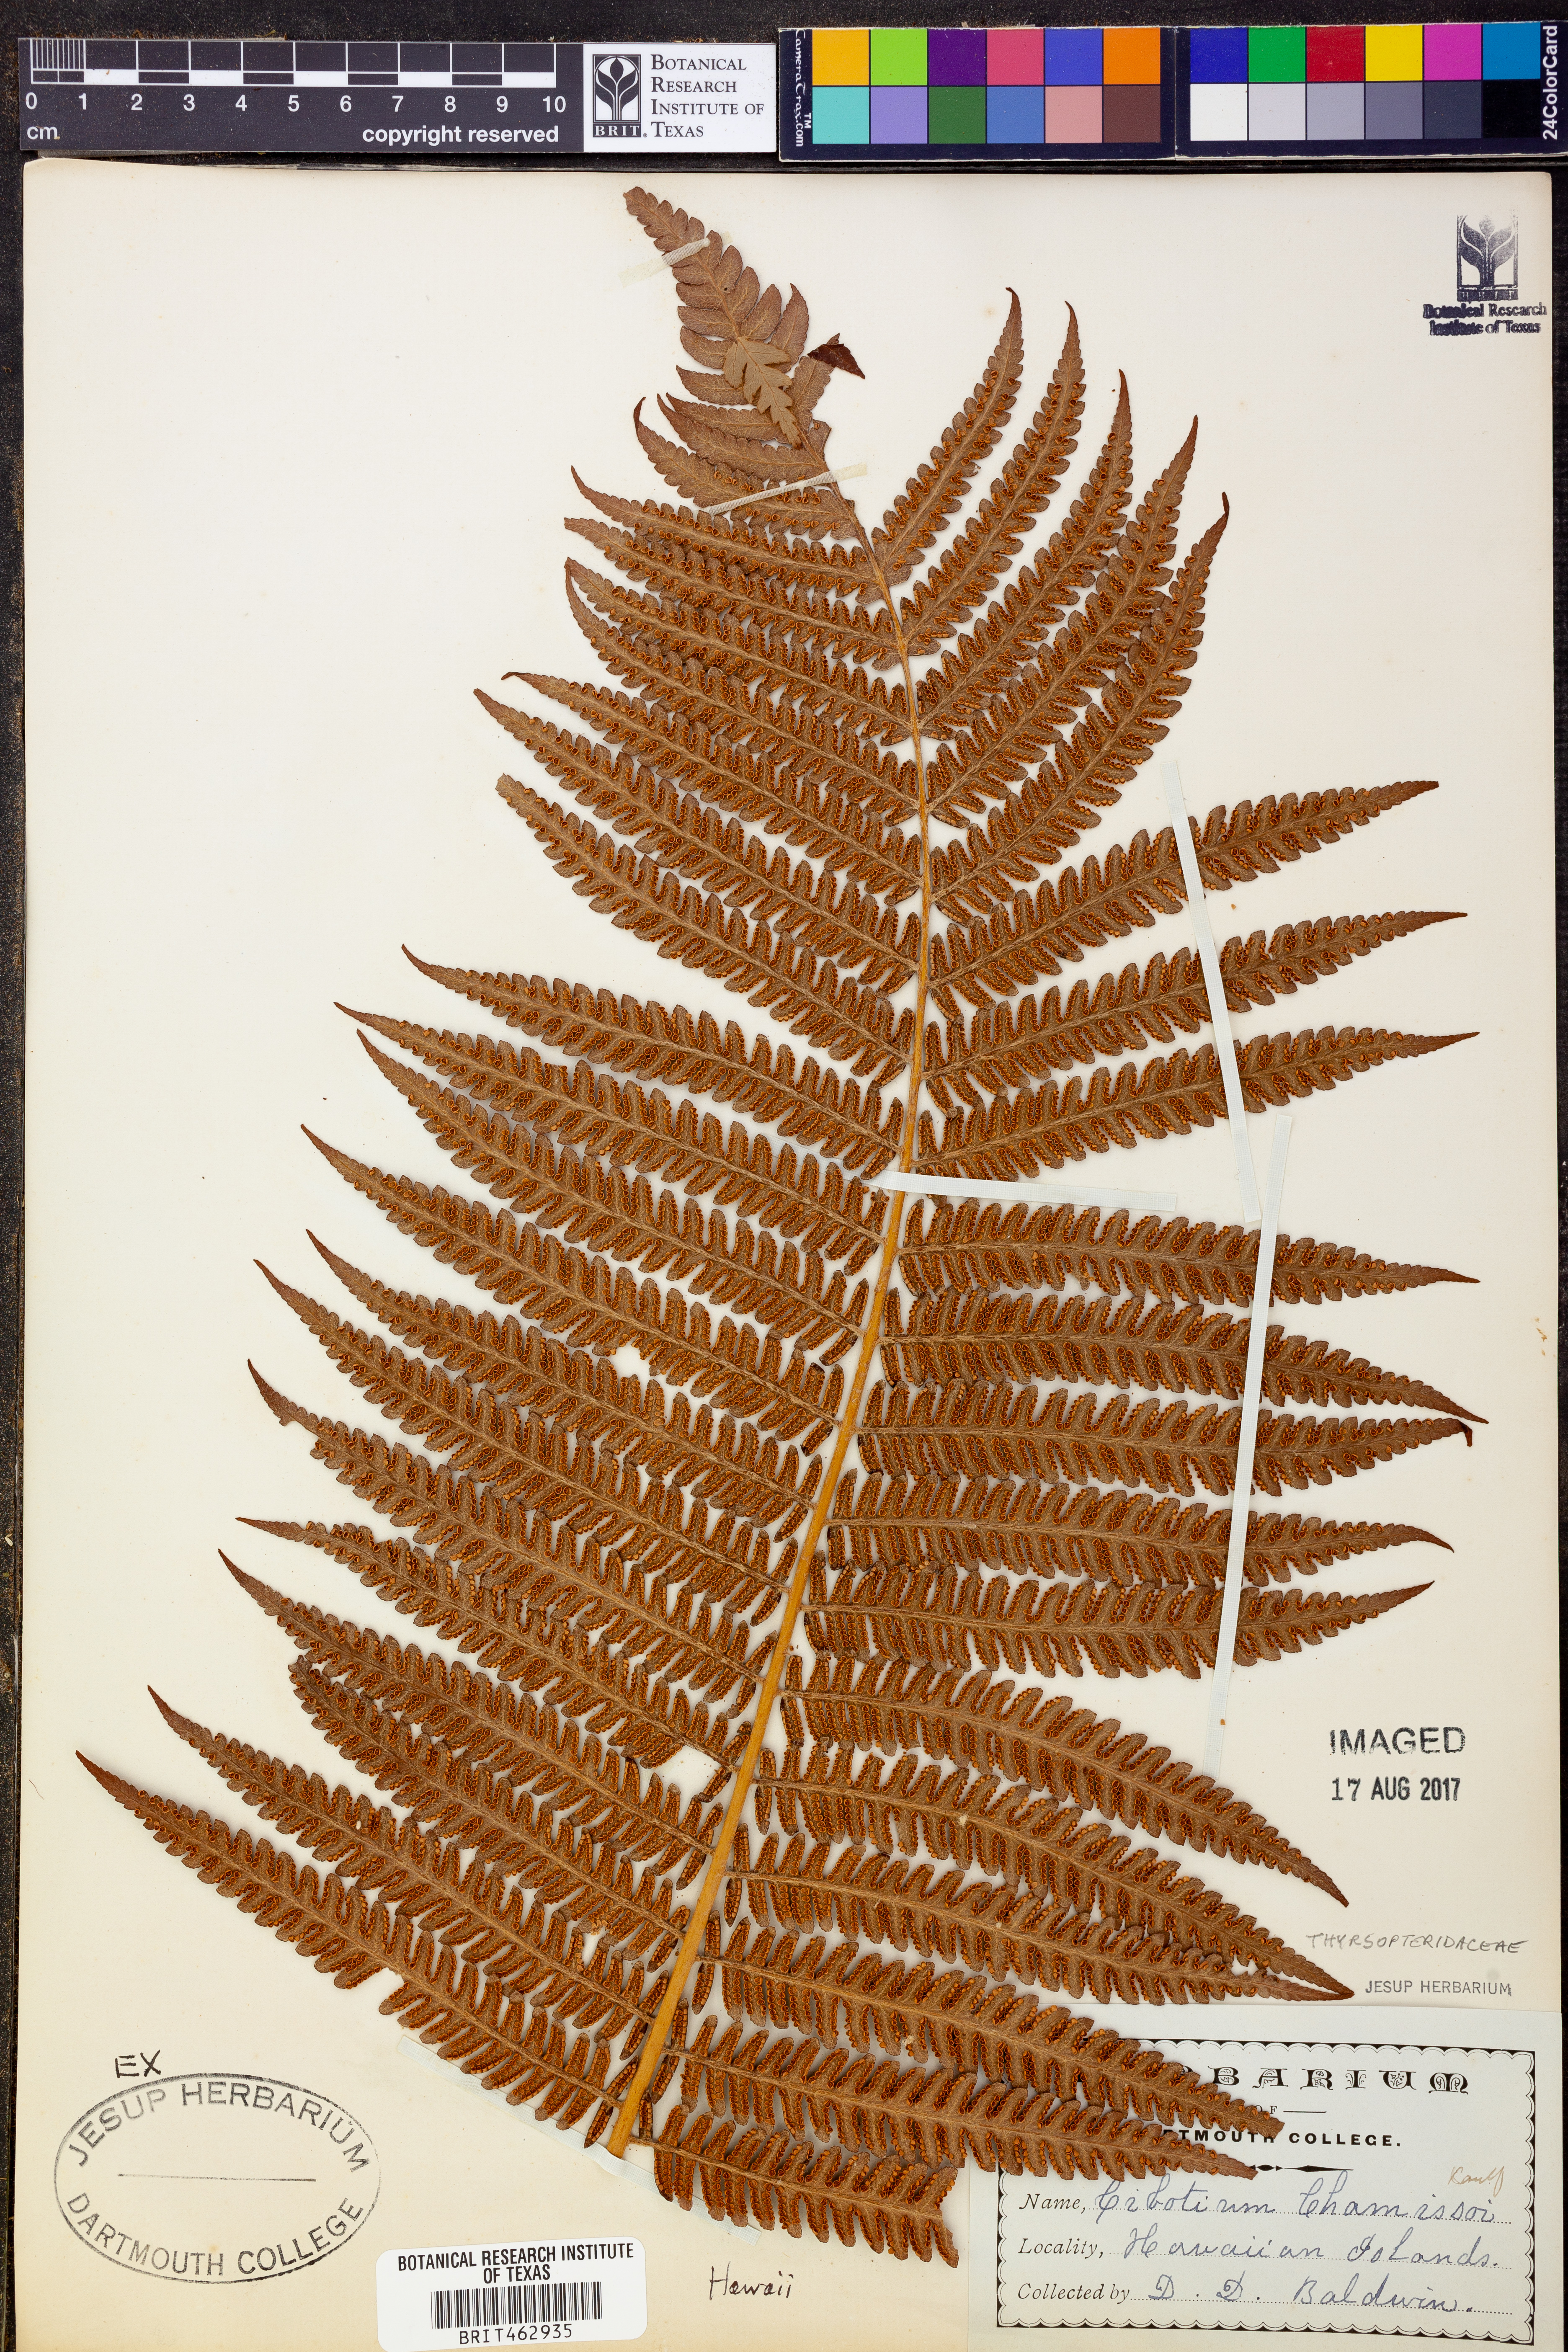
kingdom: Plantae
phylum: Tracheophyta
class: Polypodiopsida
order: Cyatheales
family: Cibotiaceae
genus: Cibotium
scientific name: Cibotium chamissoi
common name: Hawaiian tree fern
